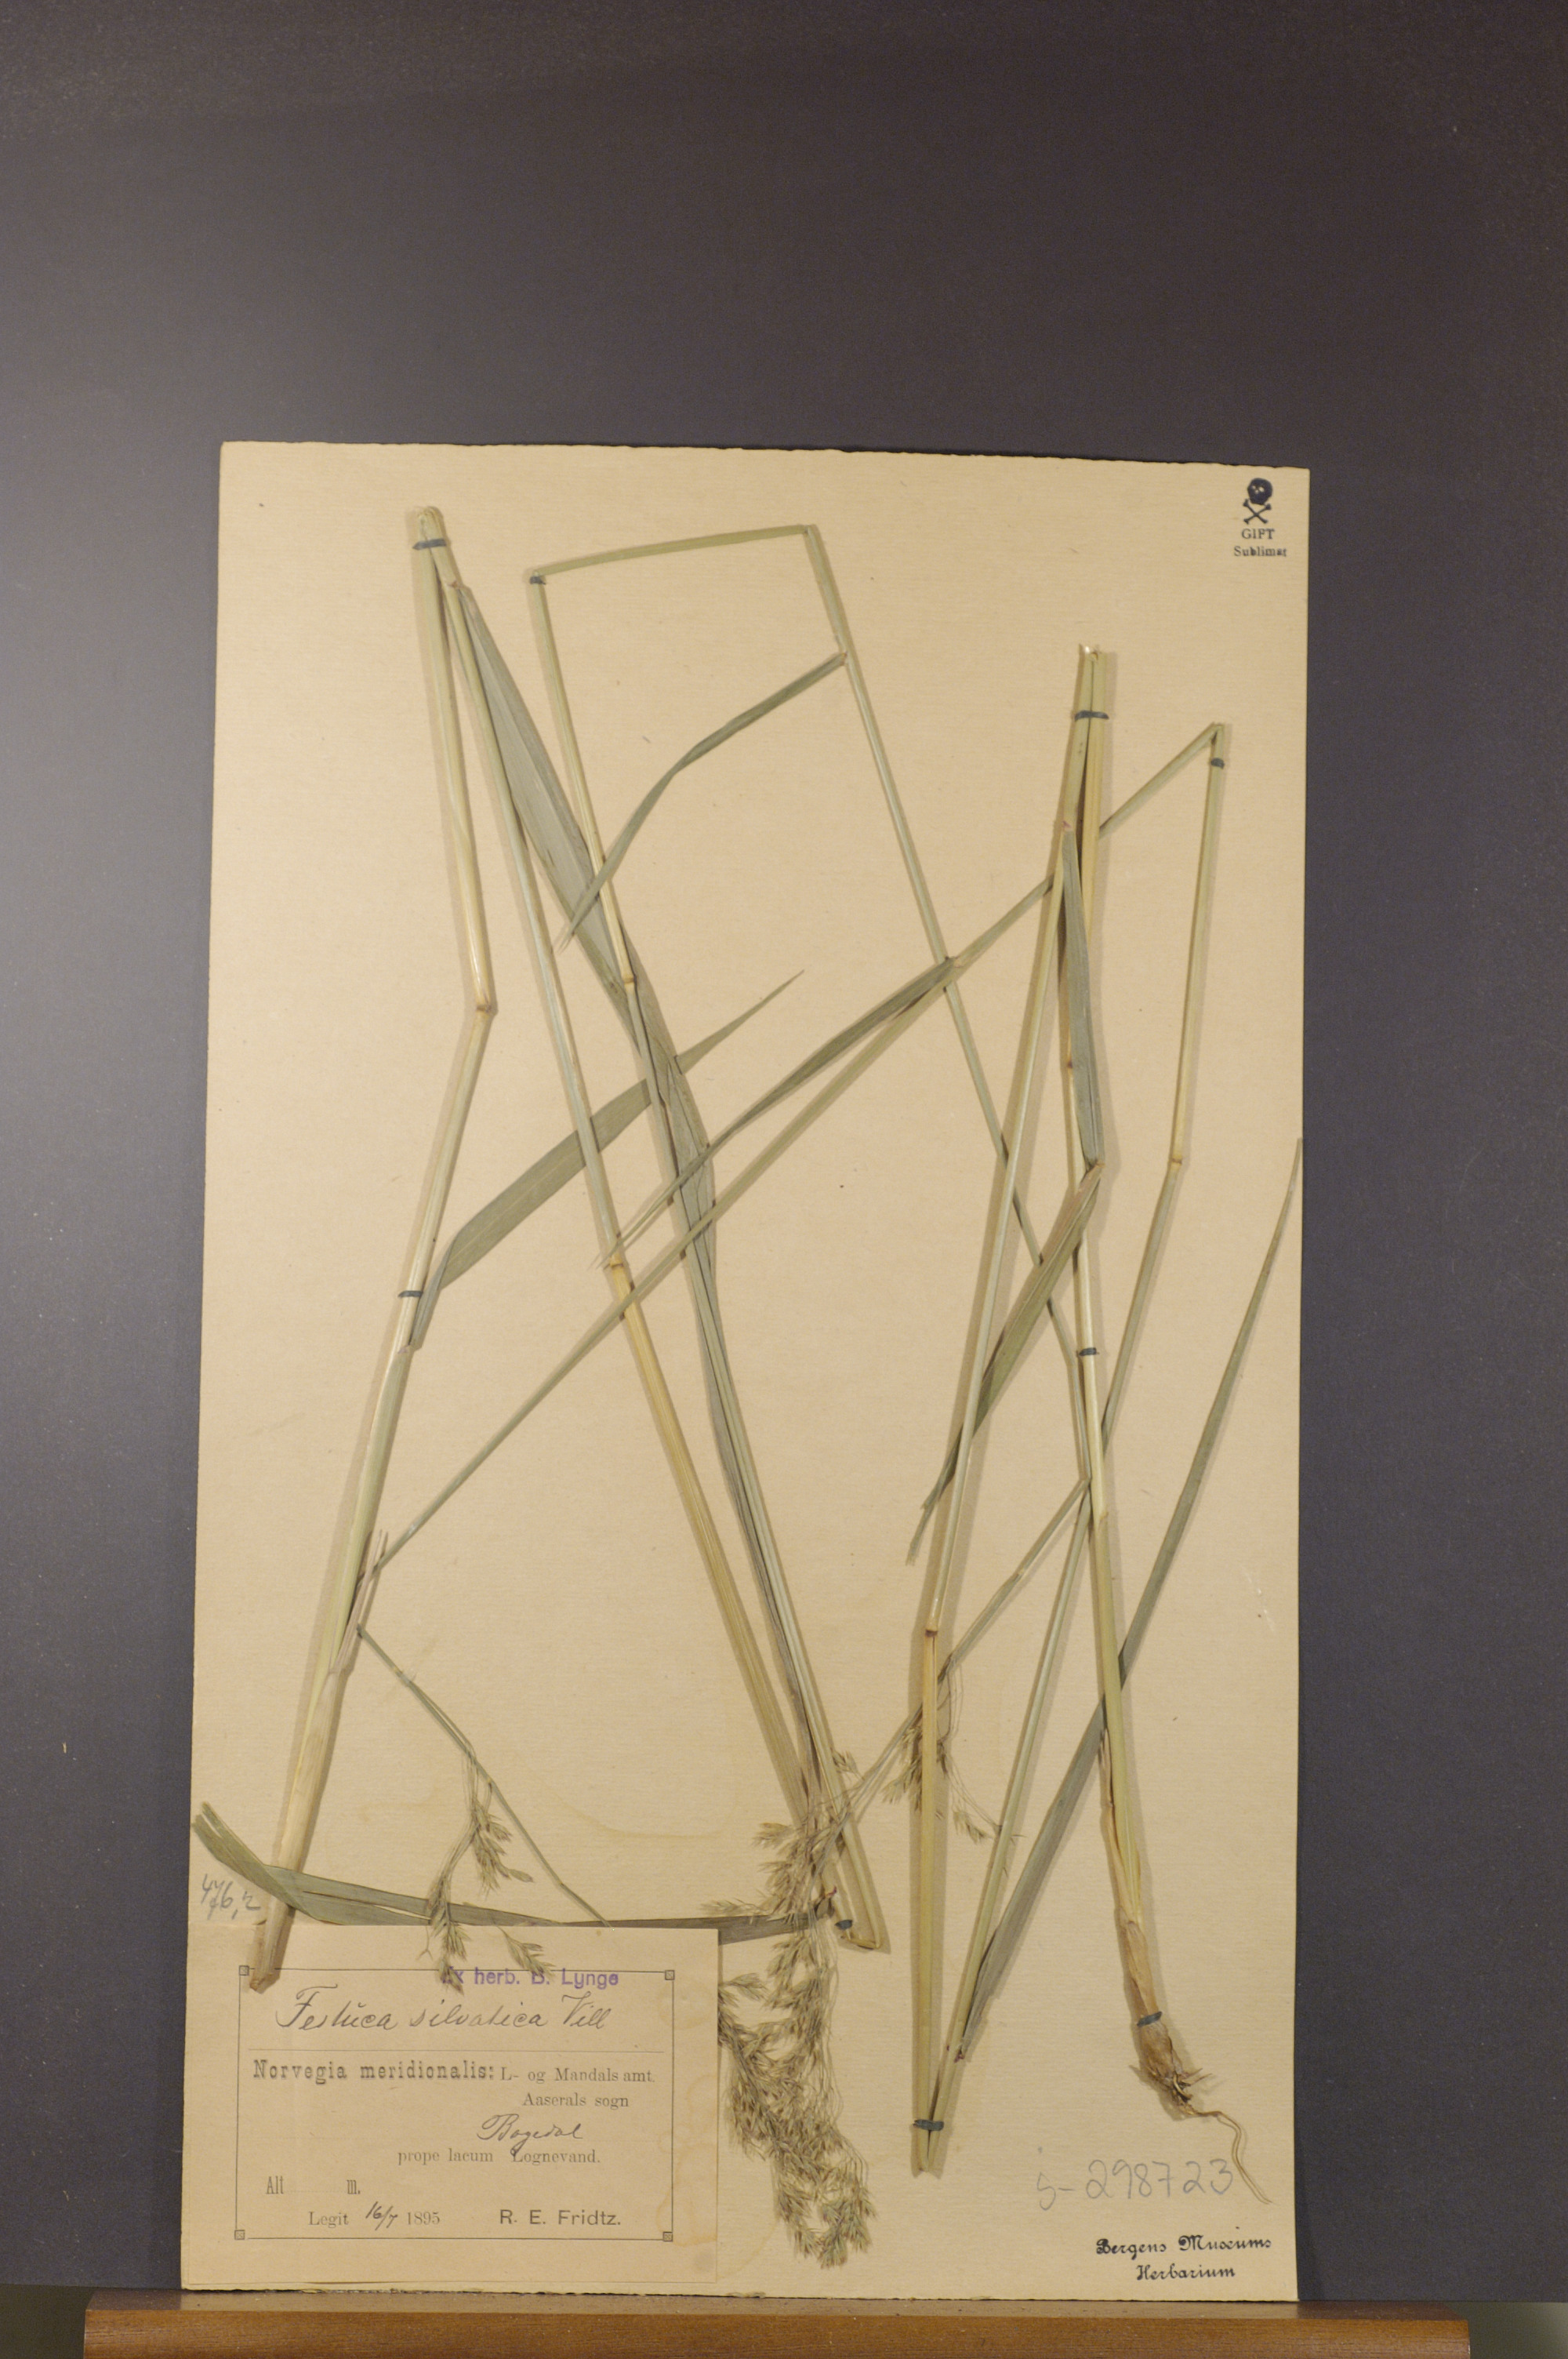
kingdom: Plantae
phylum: Tracheophyta
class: Liliopsida
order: Poales
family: Poaceae
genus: Festuca
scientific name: Festuca altissima
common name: Wood fescue
